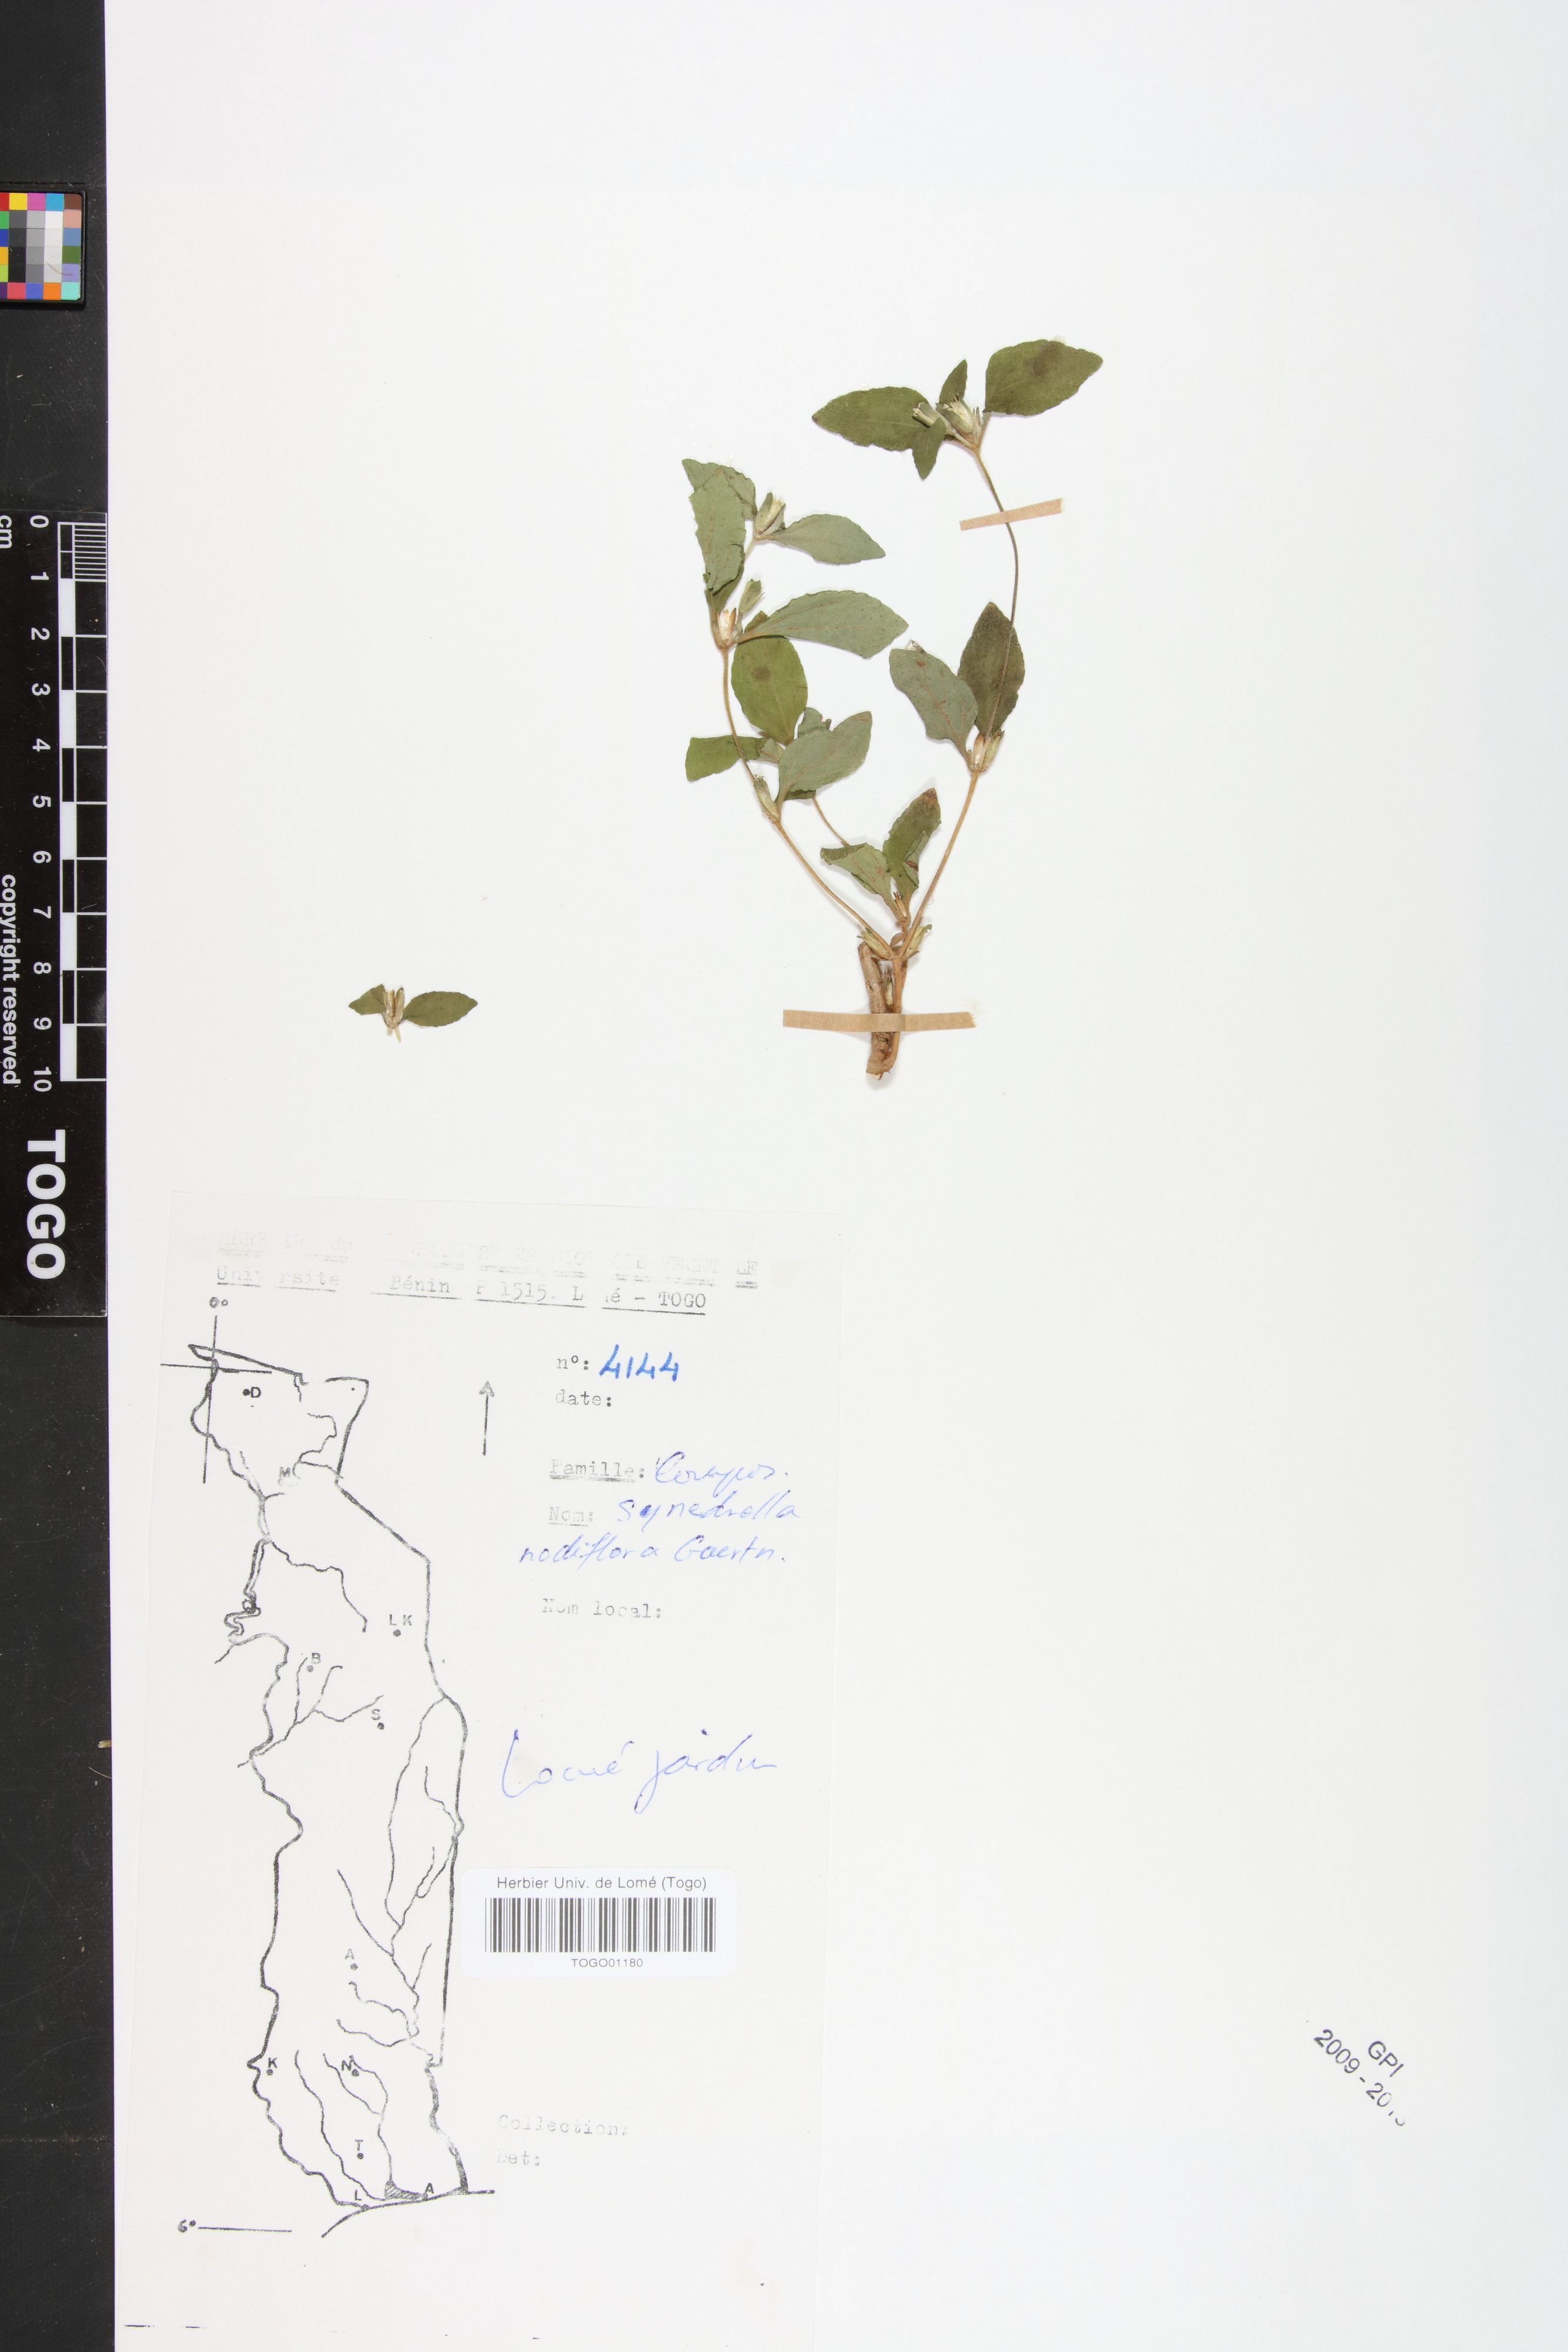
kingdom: Plantae
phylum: Tracheophyta
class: Magnoliopsida
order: Asterales
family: Asteraceae
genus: Synedrella
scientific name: Synedrella nodiflora
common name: Nodeweed
